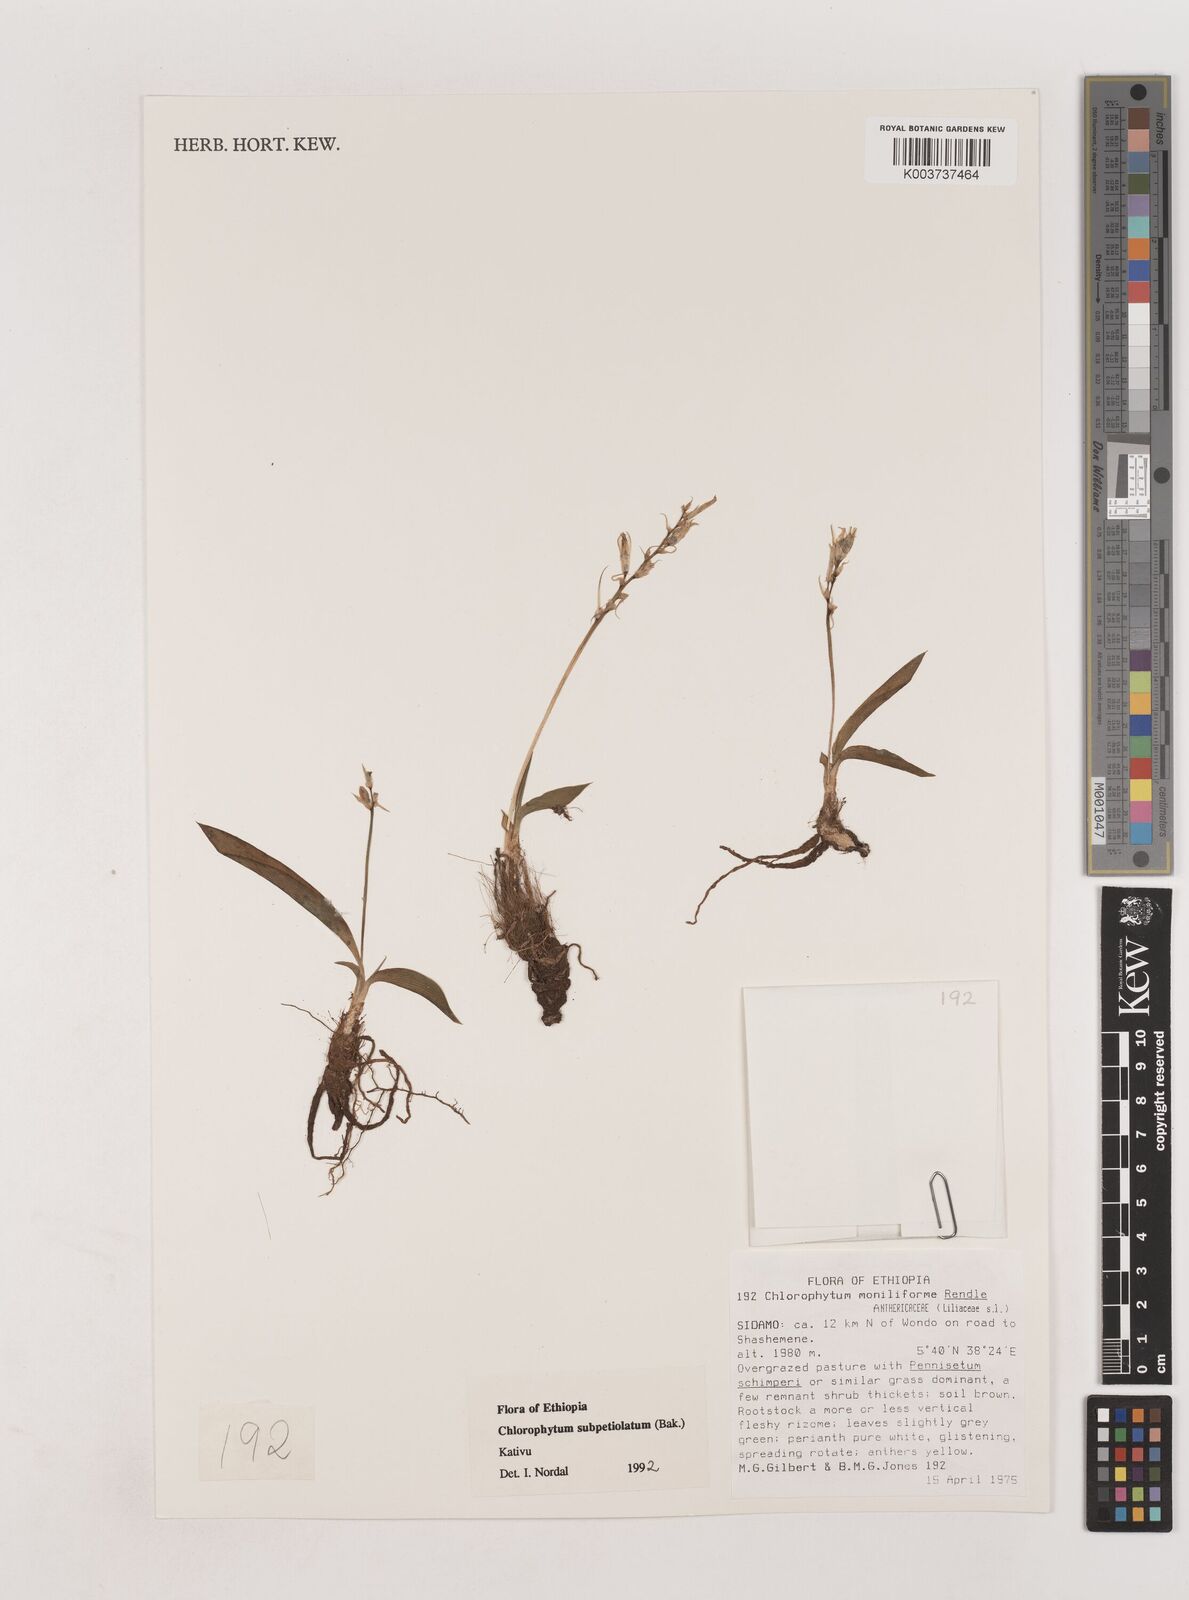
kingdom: Plantae
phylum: Tracheophyta
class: Liliopsida
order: Asparagales
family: Asparagaceae
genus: Chlorophytum
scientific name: Chlorophytum subpetiolatum
